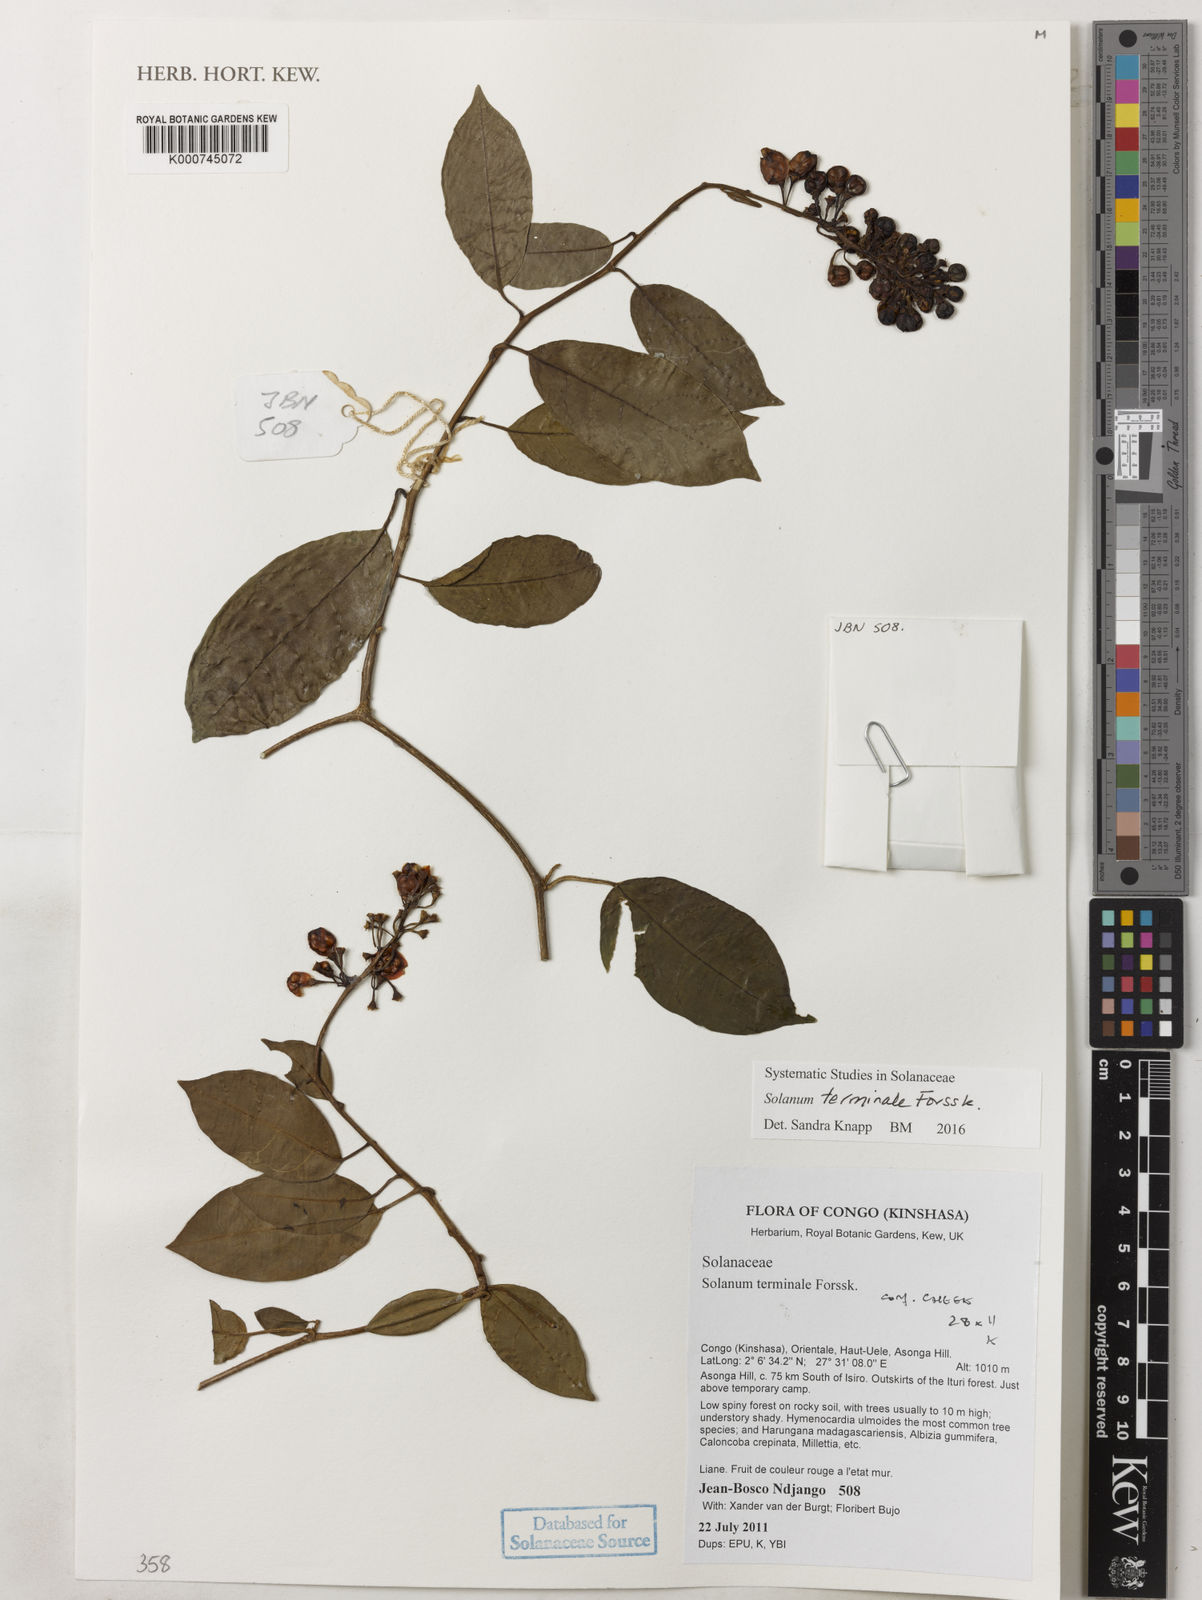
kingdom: Plantae
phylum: Tracheophyta
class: Magnoliopsida
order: Solanales
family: Solanaceae
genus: Solanum
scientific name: Solanum terminale
